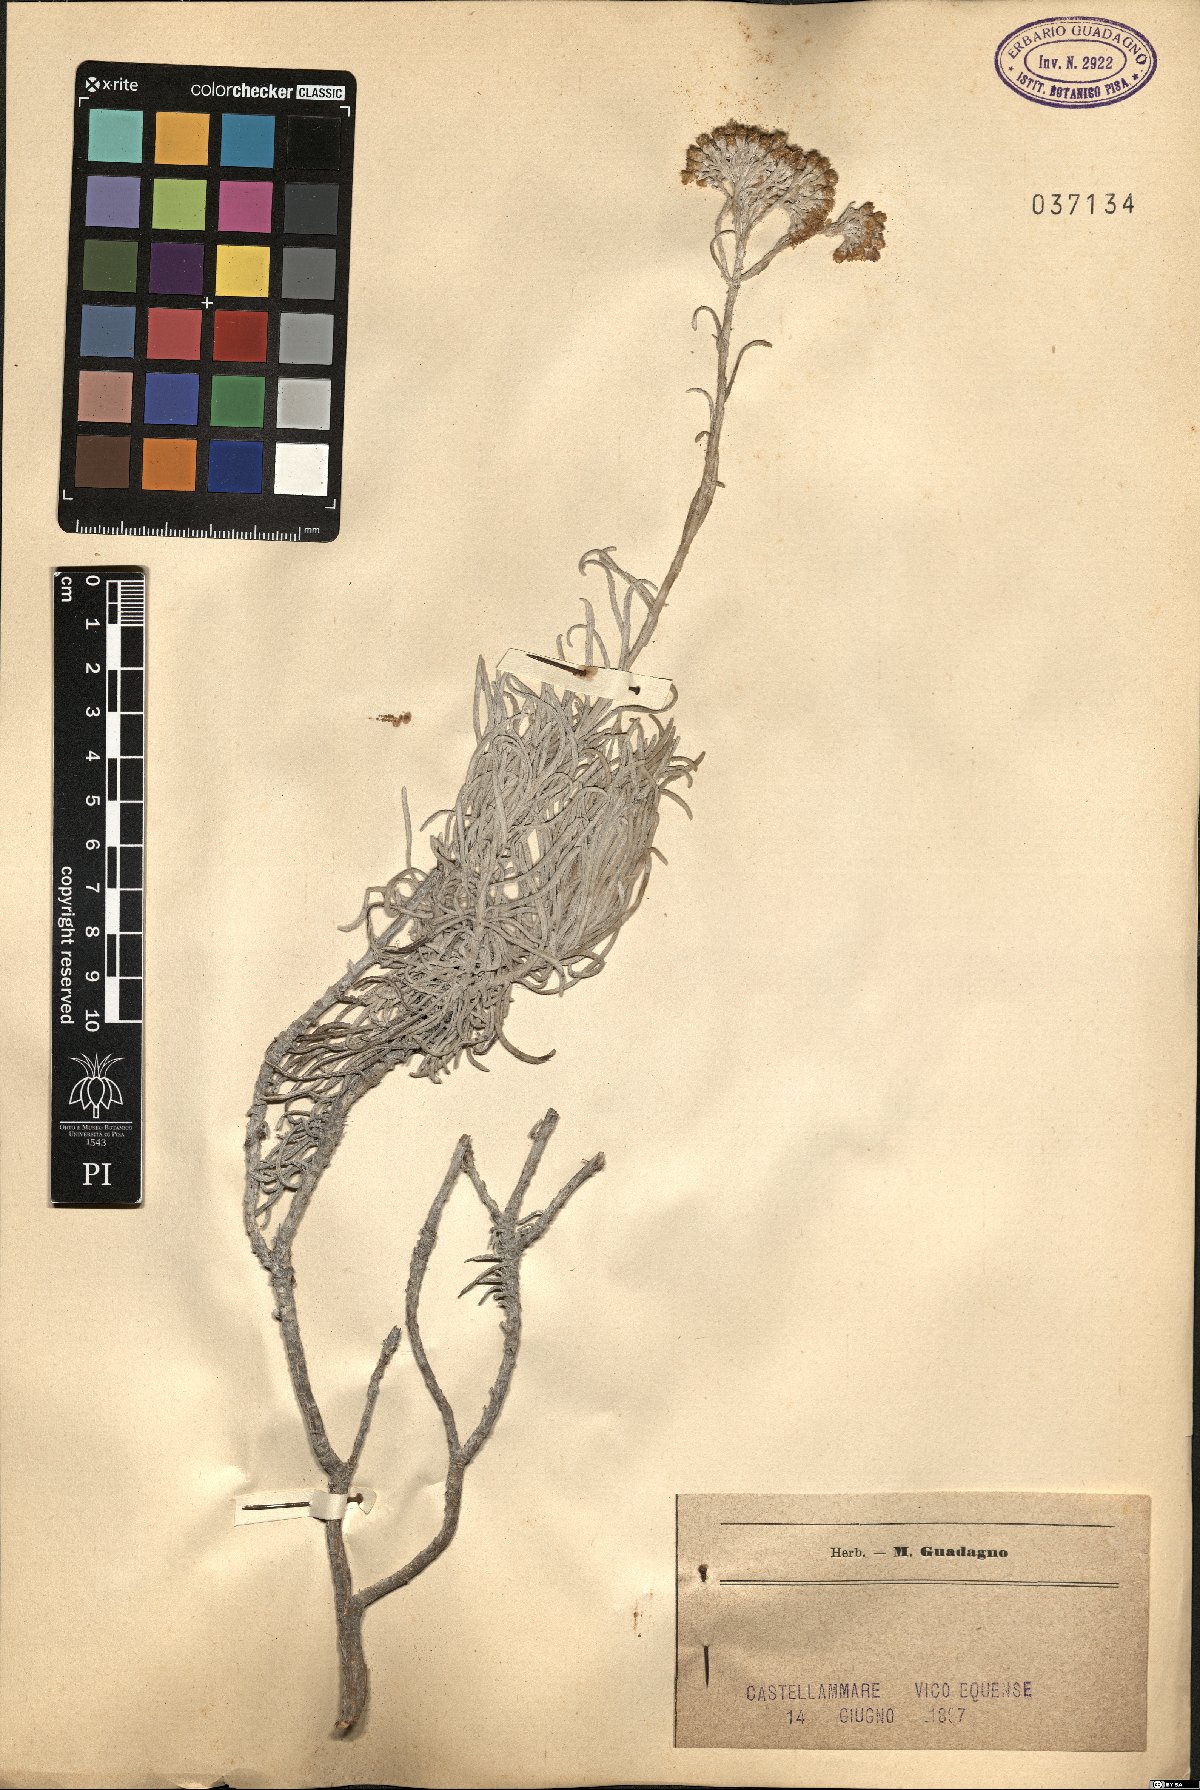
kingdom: Plantae
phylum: Tracheophyta
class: Magnoliopsida
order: Asterales
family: Asteraceae
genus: Helichrysum
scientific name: Helichrysum
